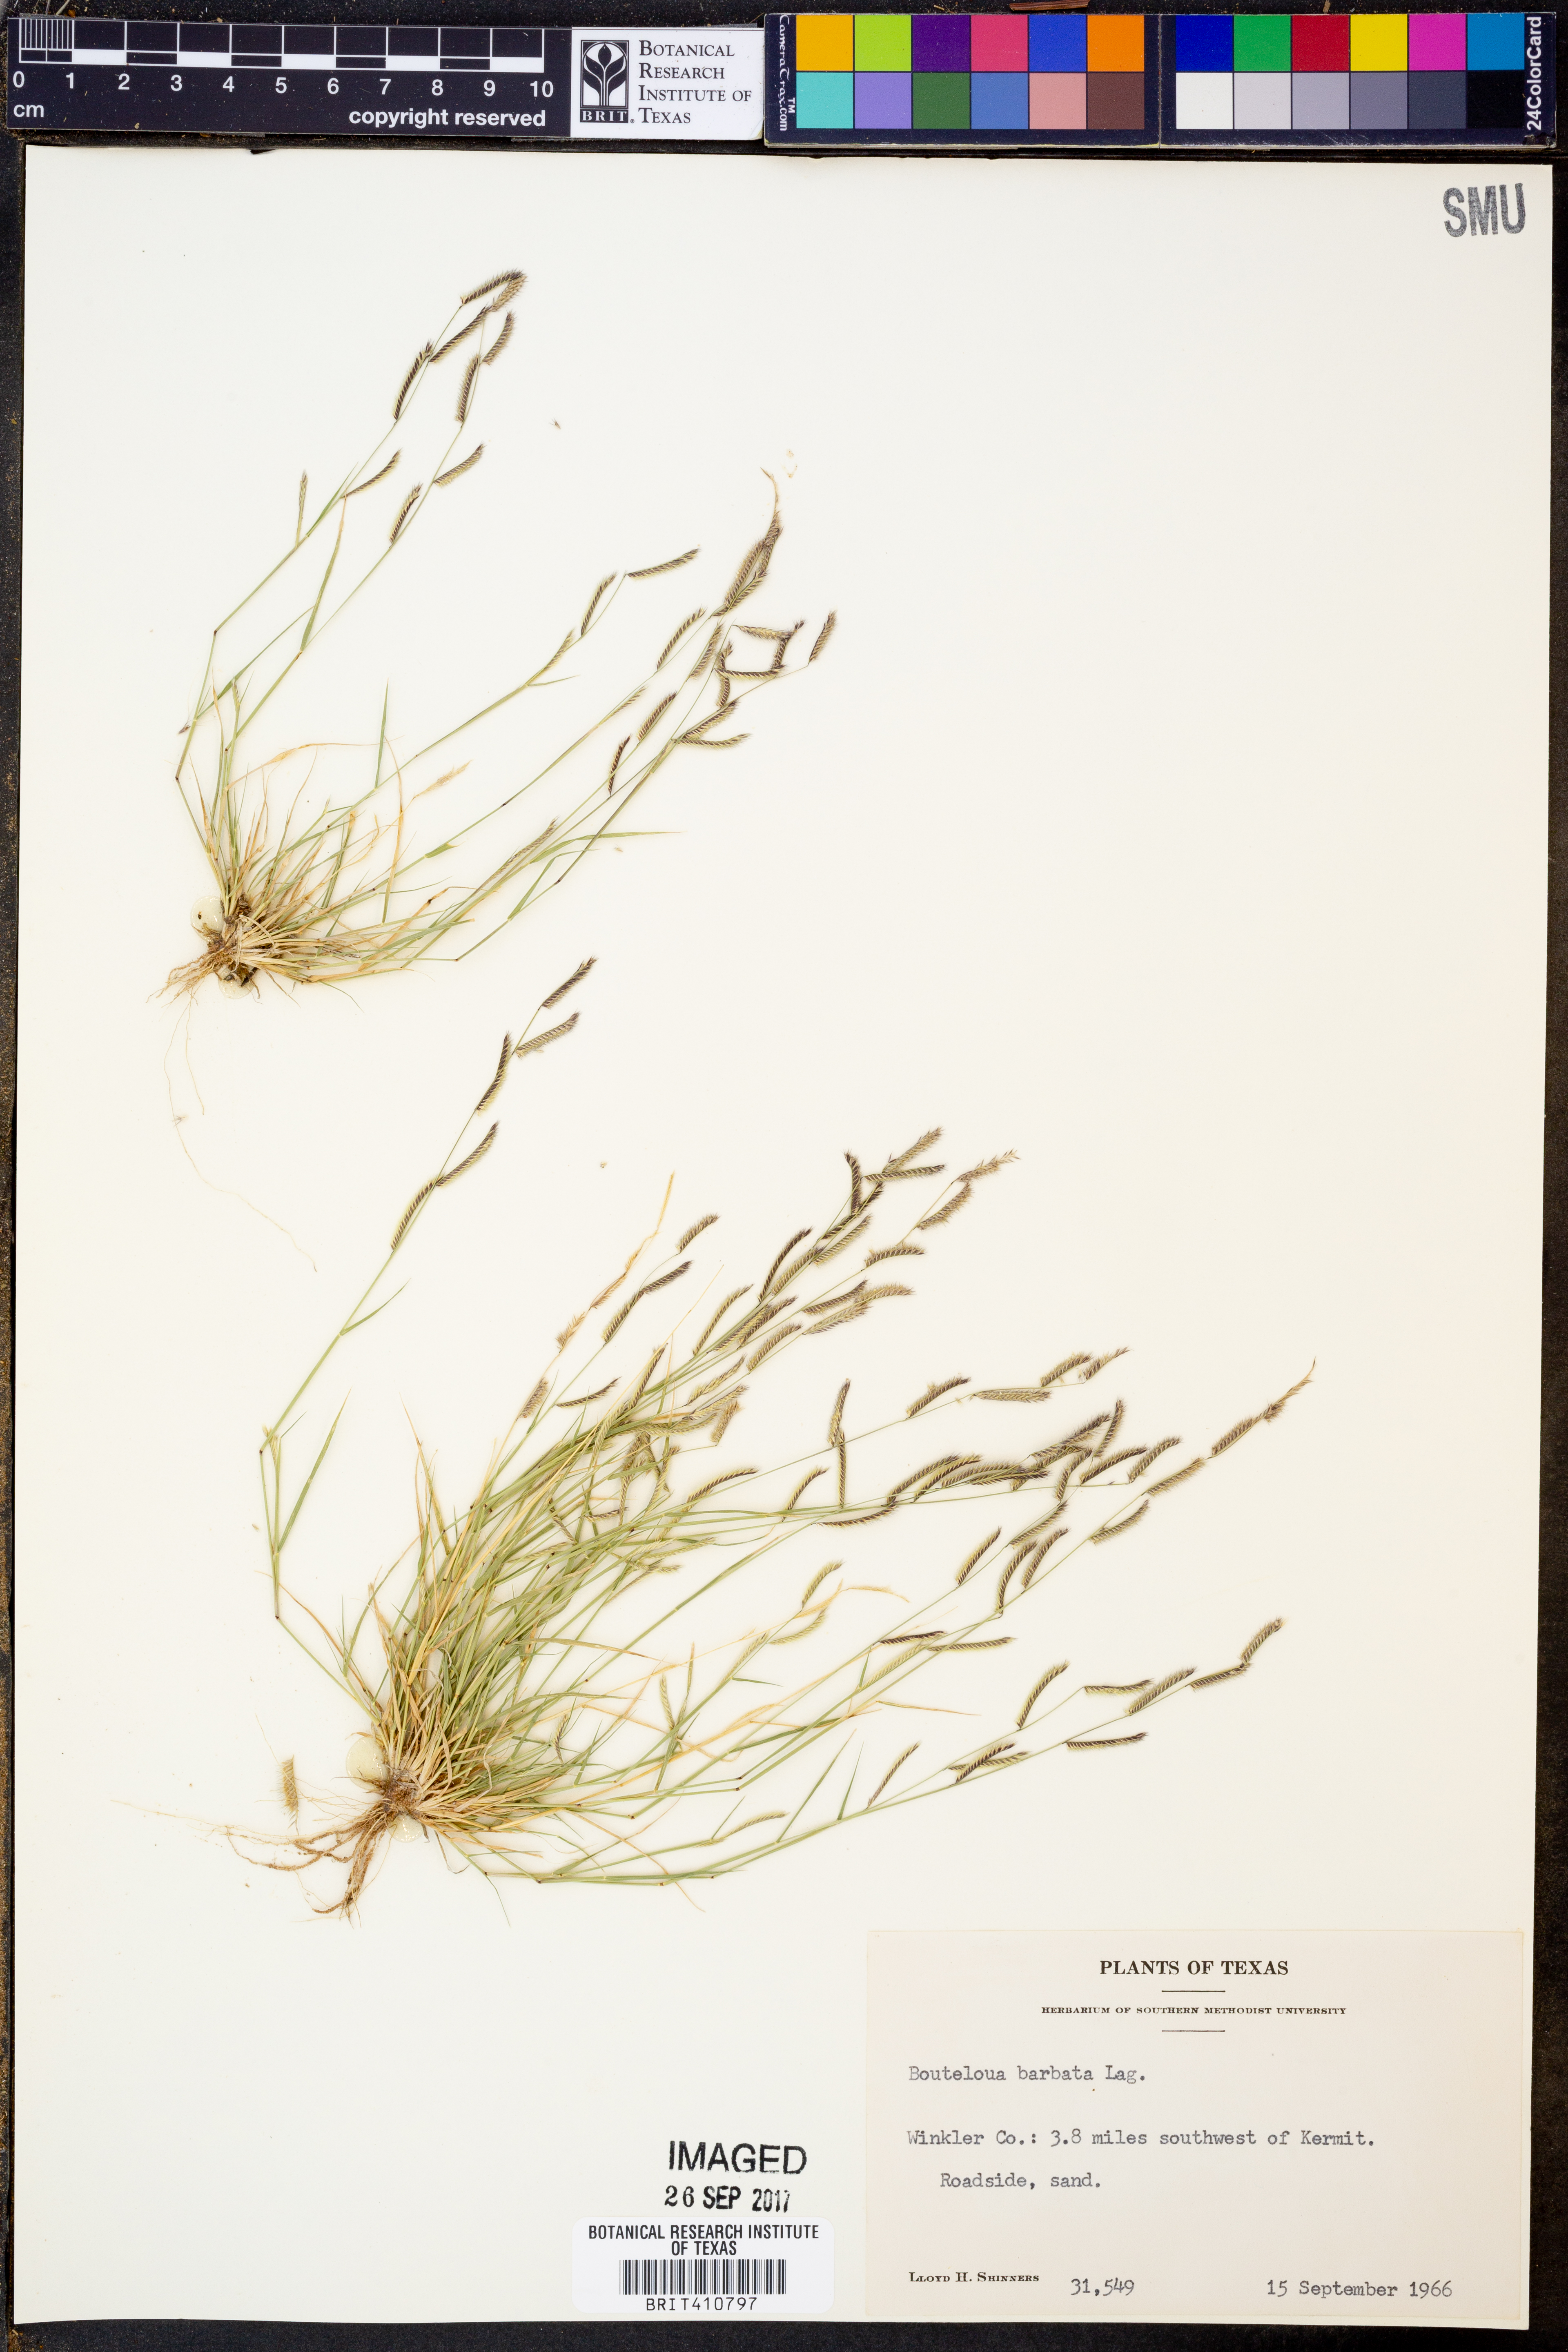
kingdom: Plantae
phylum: Tracheophyta
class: Liliopsida
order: Poales
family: Poaceae
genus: Bouteloua
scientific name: Bouteloua barbata
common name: Six-weeks grama
